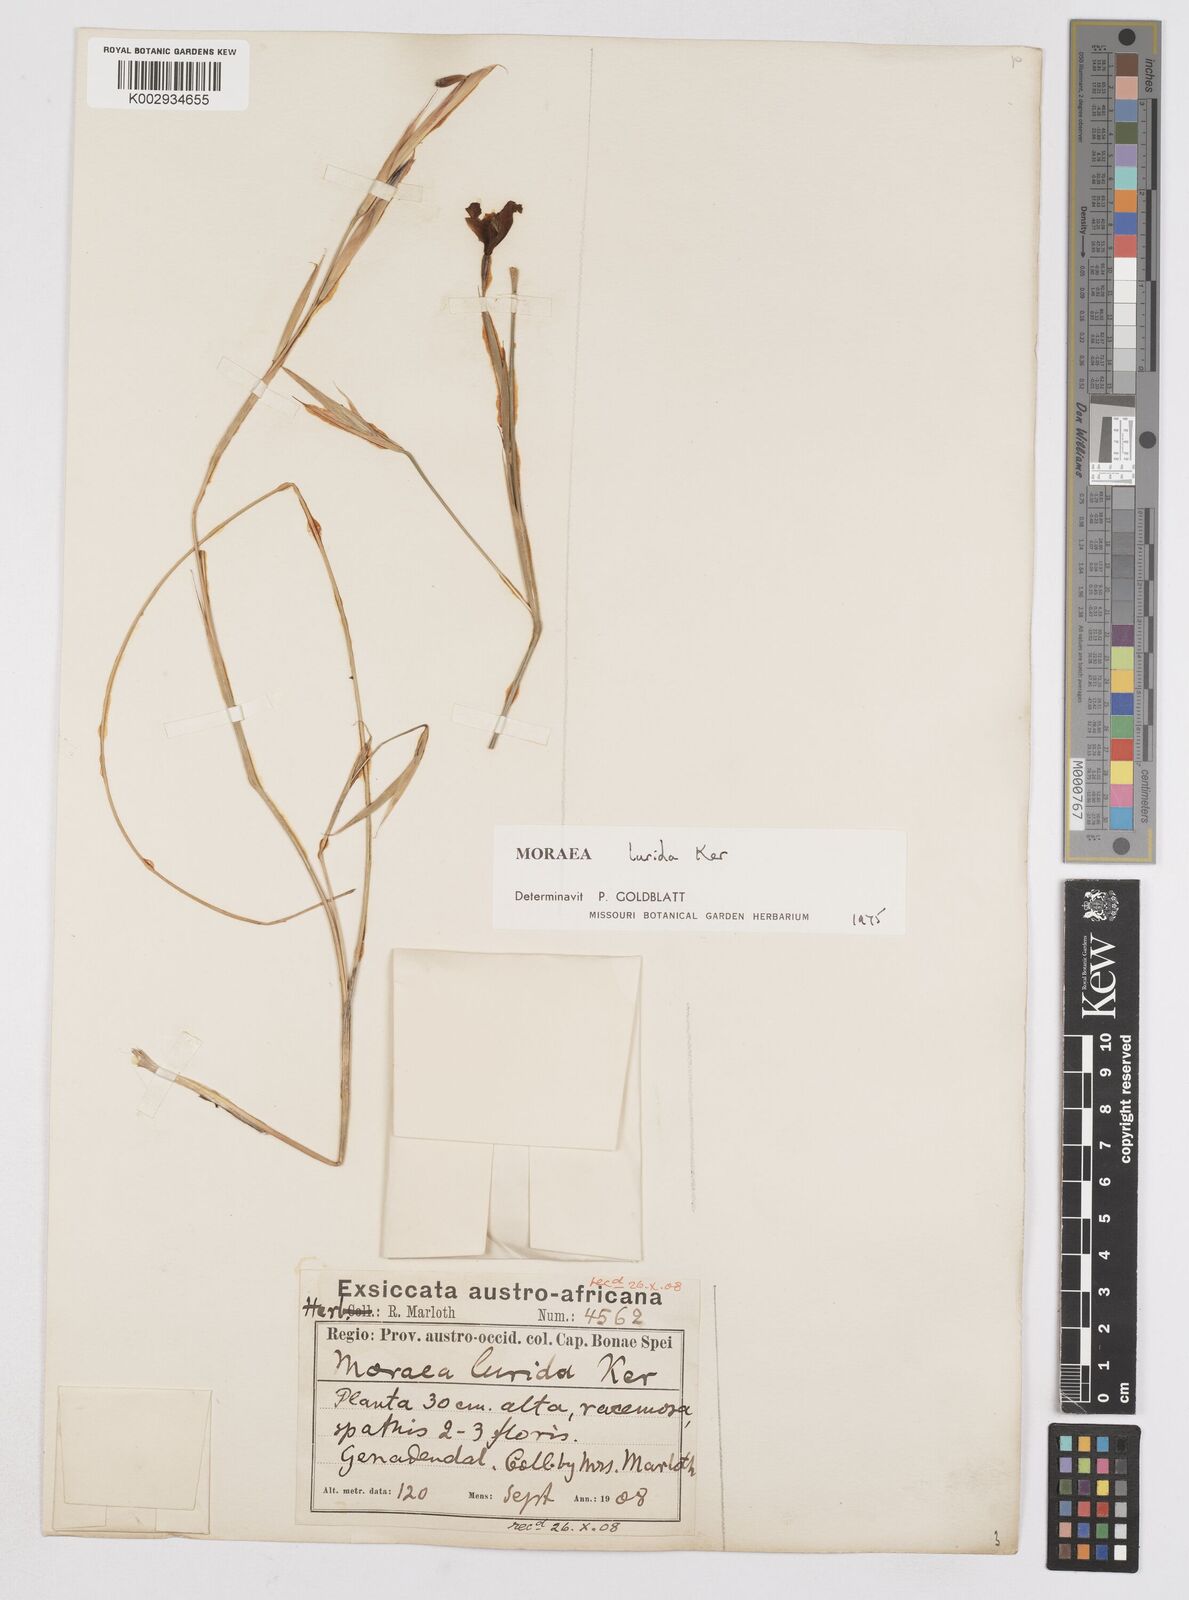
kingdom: Plantae
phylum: Tracheophyta
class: Liliopsida
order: Asparagales
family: Iridaceae
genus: Moraea
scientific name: Moraea lurida
